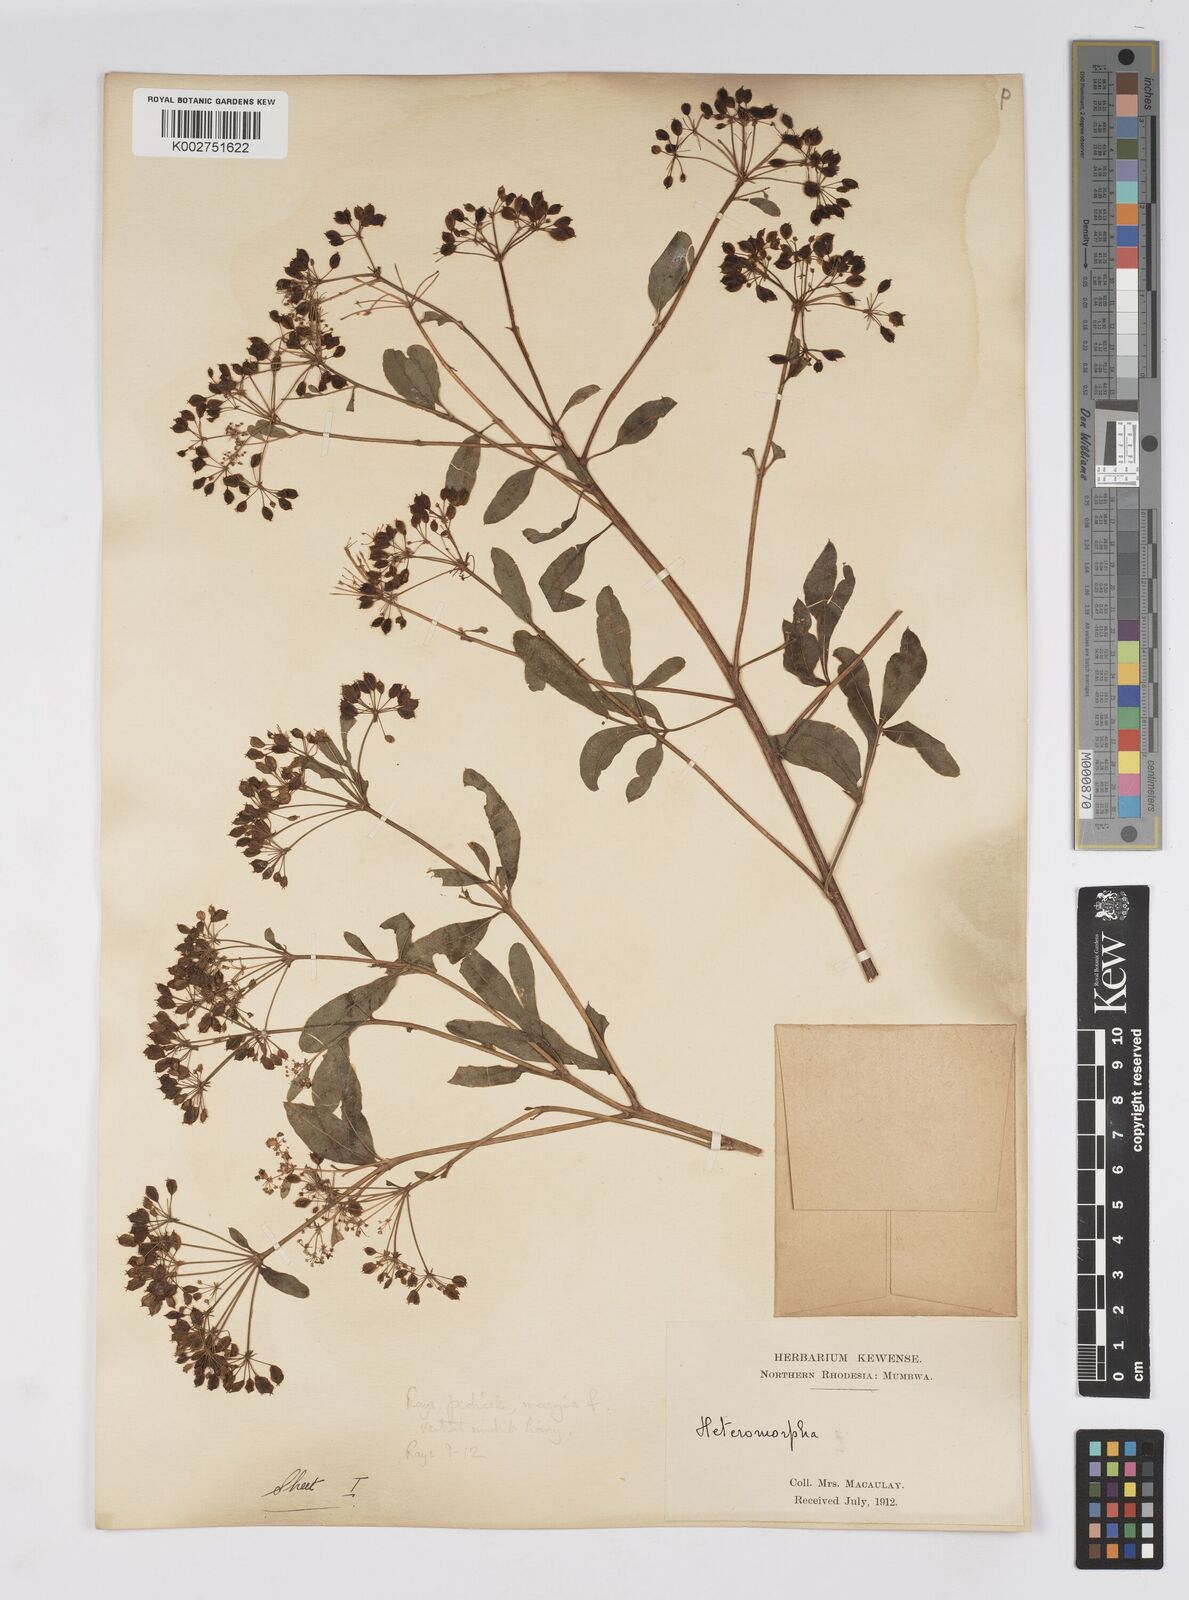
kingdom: Plantae
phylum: Tracheophyta
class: Magnoliopsida
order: Apiales
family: Apiaceae
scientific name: Apiaceae
